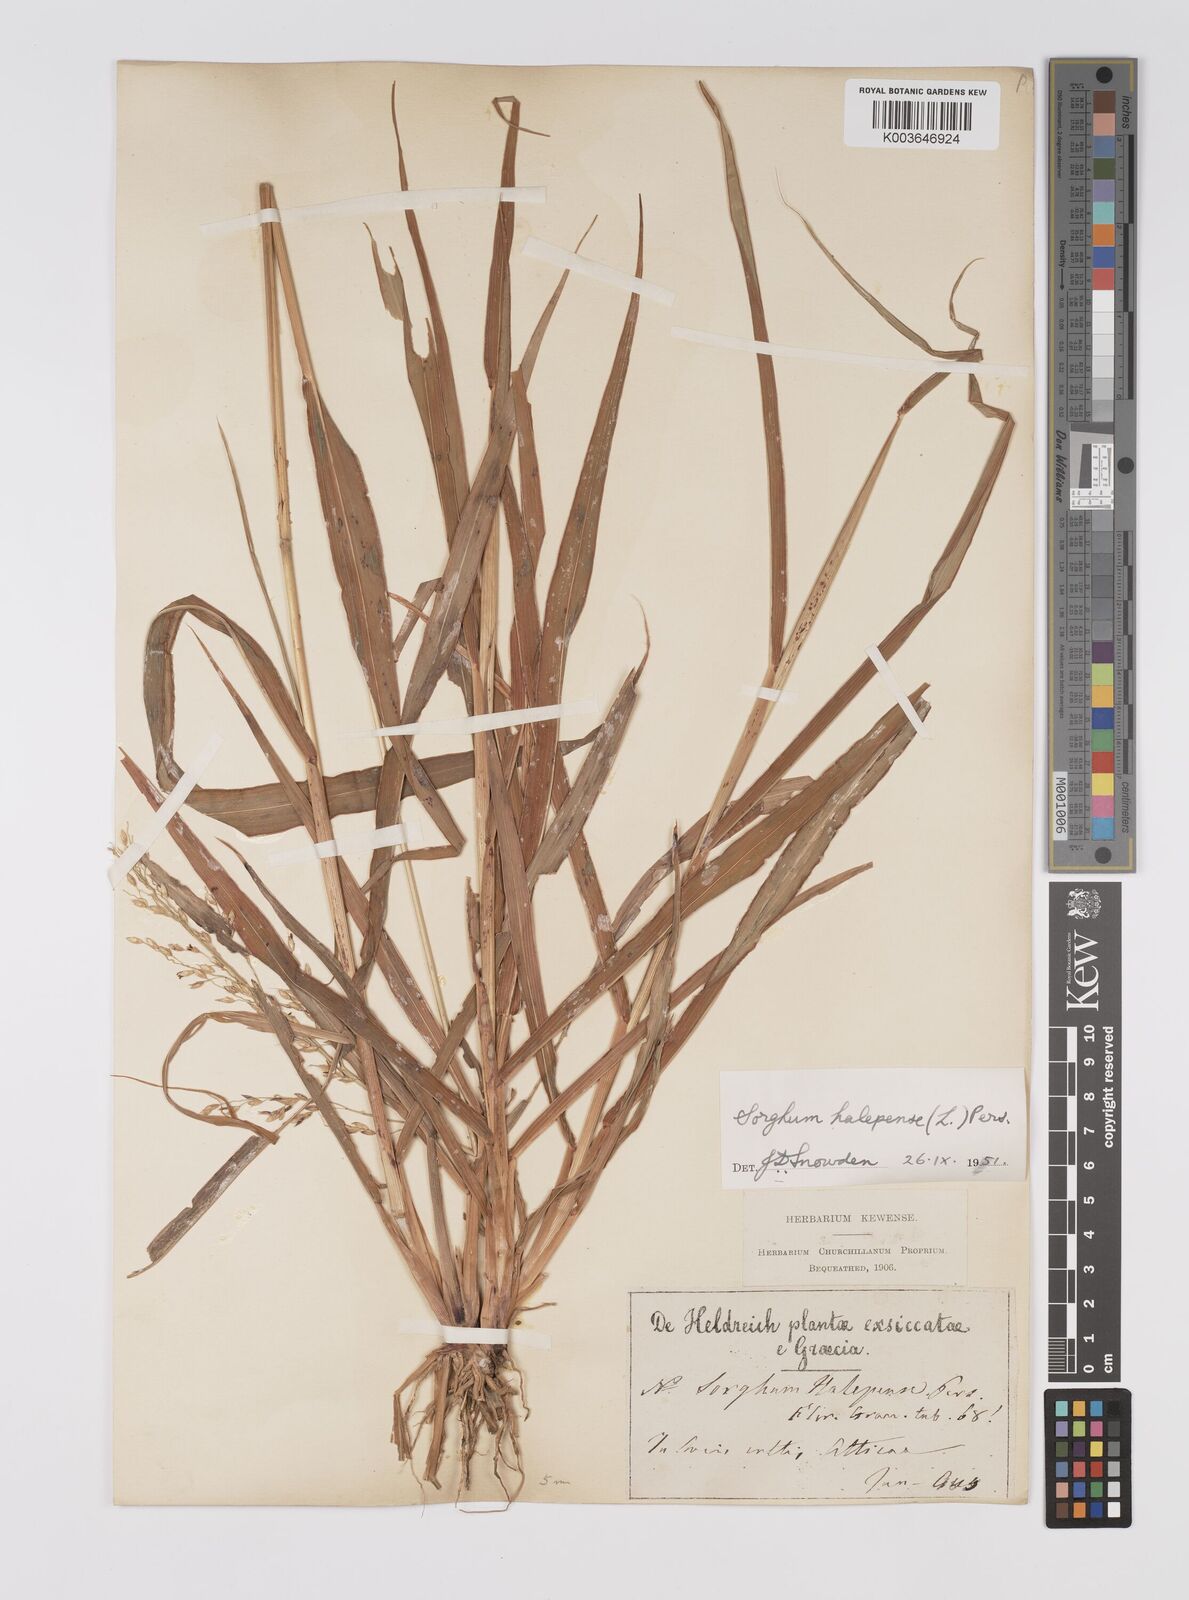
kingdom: Plantae
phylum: Tracheophyta
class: Liliopsida
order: Poales
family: Poaceae
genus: Sorghum
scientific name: Sorghum halepense
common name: Johnson-grass
